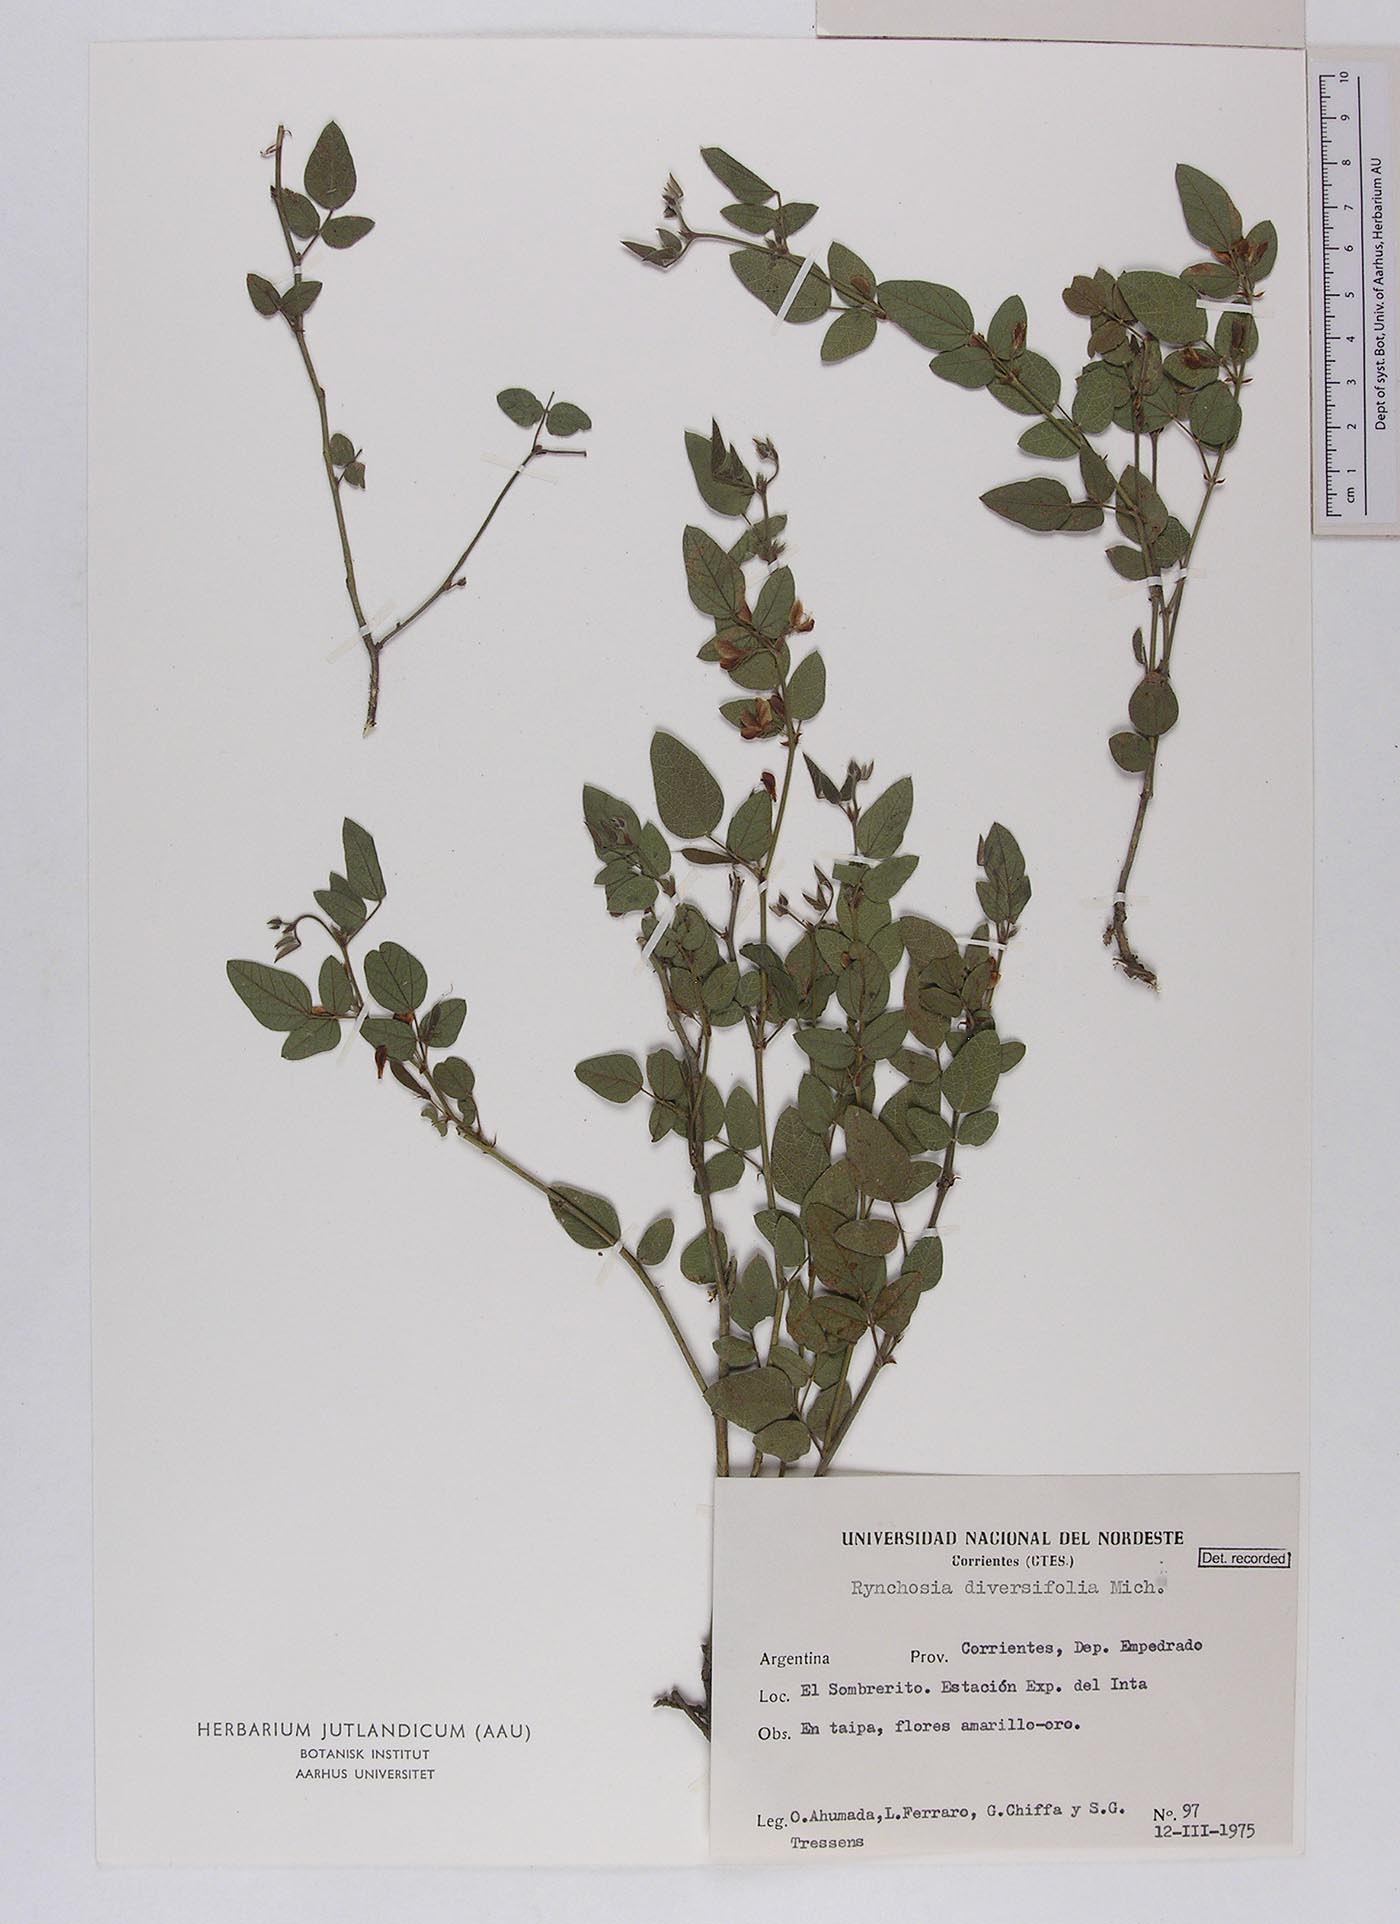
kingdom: Plantae
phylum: Tracheophyta
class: Magnoliopsida
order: Fabales
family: Fabaceae
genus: Rhynchosia
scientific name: Rhynchosia diversifolia
